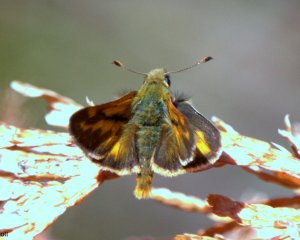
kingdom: Animalia
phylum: Arthropoda
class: Insecta
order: Lepidoptera
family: Hesperiidae
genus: Ochlodes
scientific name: Ochlodes sylvanoides
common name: Woodland Skipper
